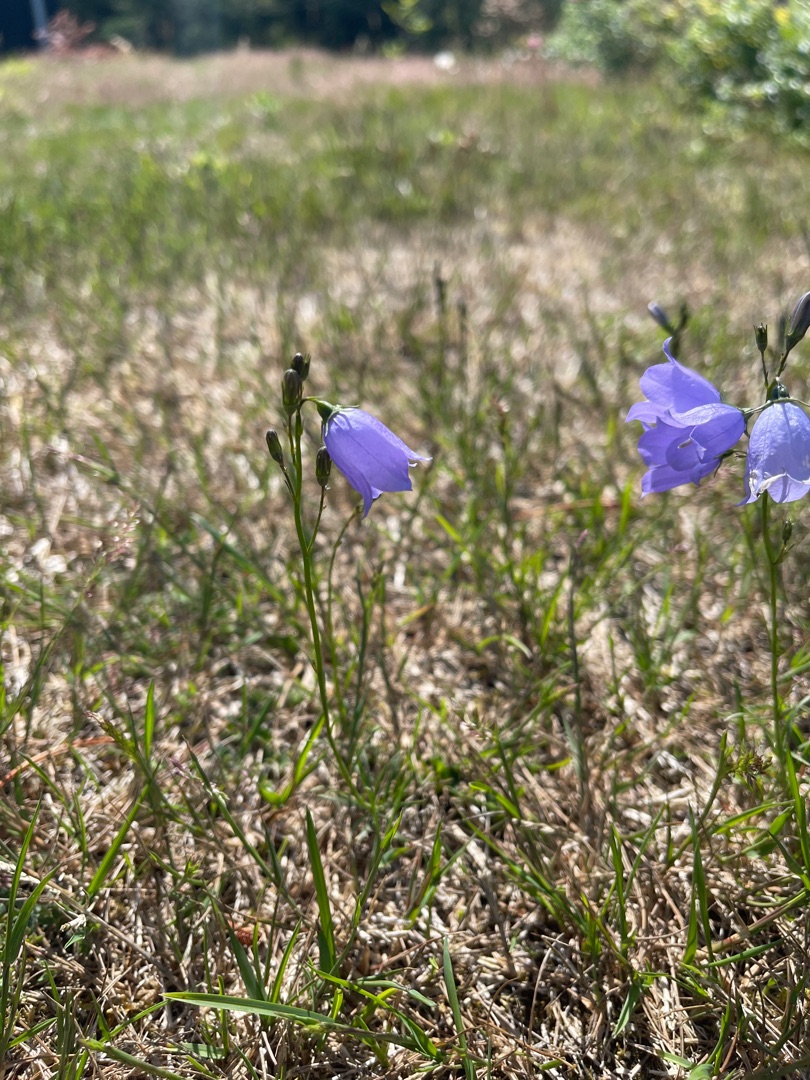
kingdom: Plantae
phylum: Tracheophyta
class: Magnoliopsida
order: Asterales
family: Campanulaceae
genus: Campanula
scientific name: Campanula rotundifolia
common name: Liden klokke
